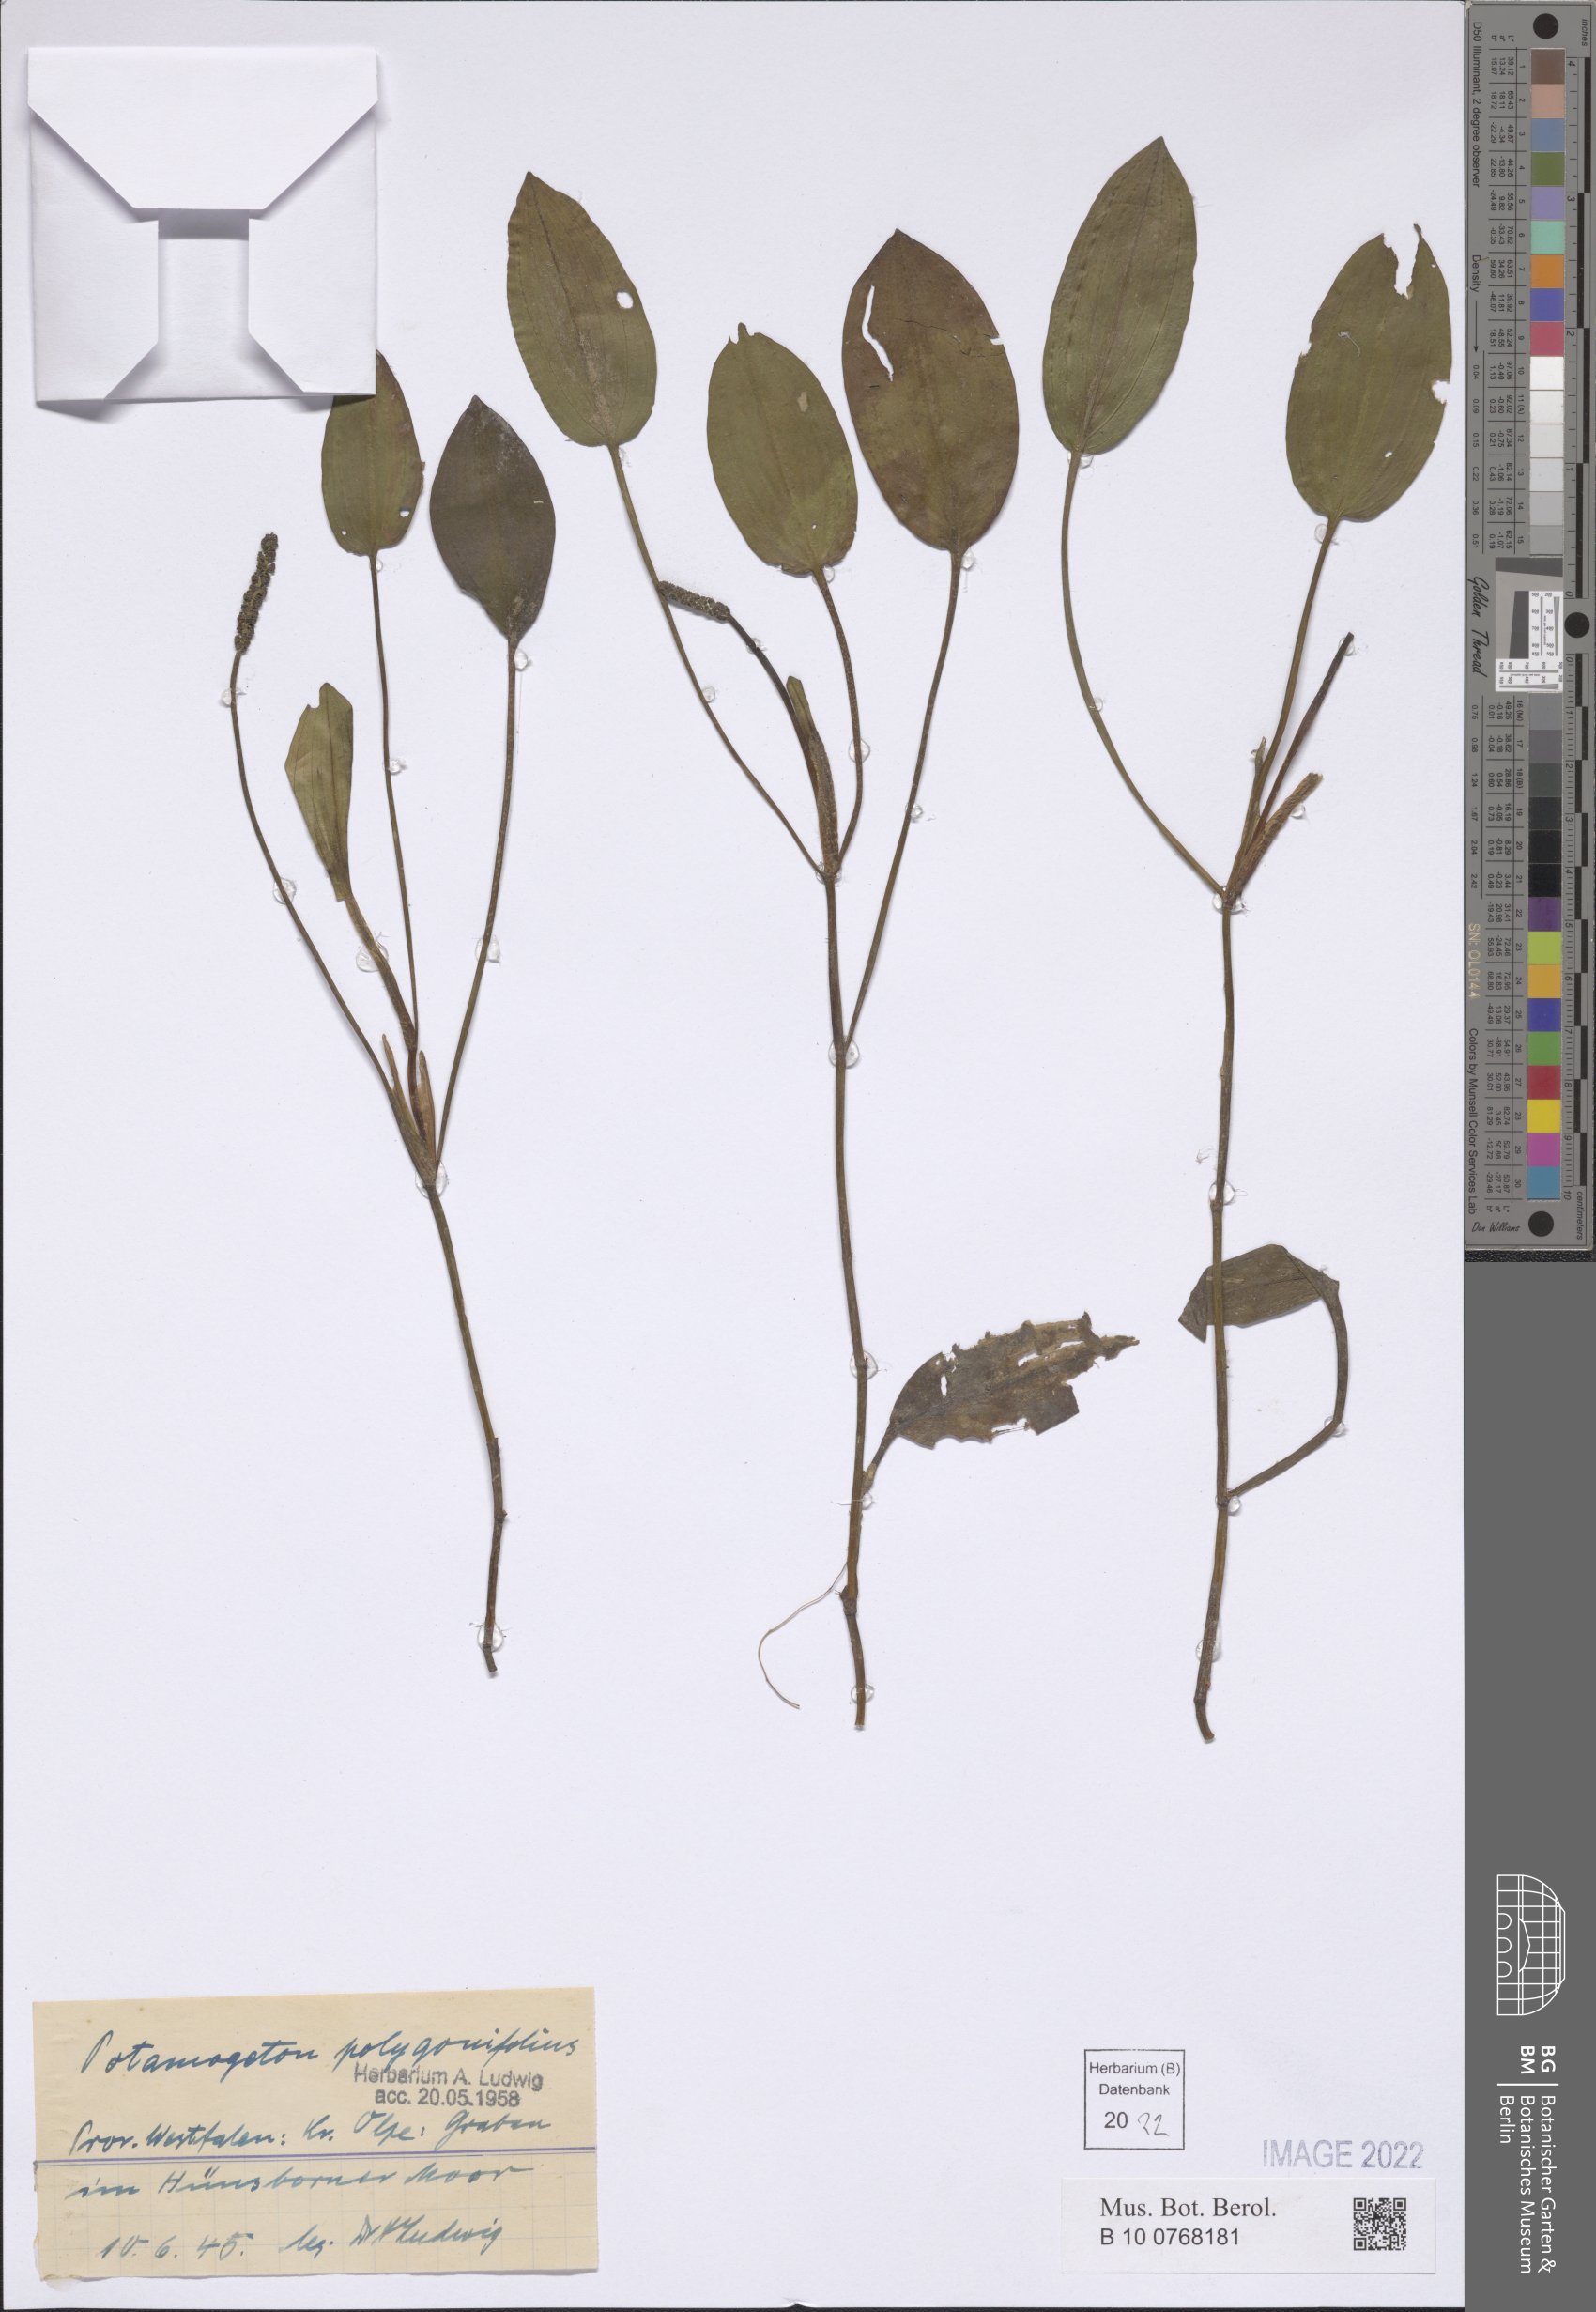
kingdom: Plantae
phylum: Tracheophyta
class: Liliopsida
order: Alismatales
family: Potamogetonaceae
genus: Potamogeton
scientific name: Potamogeton polygonifolius
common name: Bog pondweed
